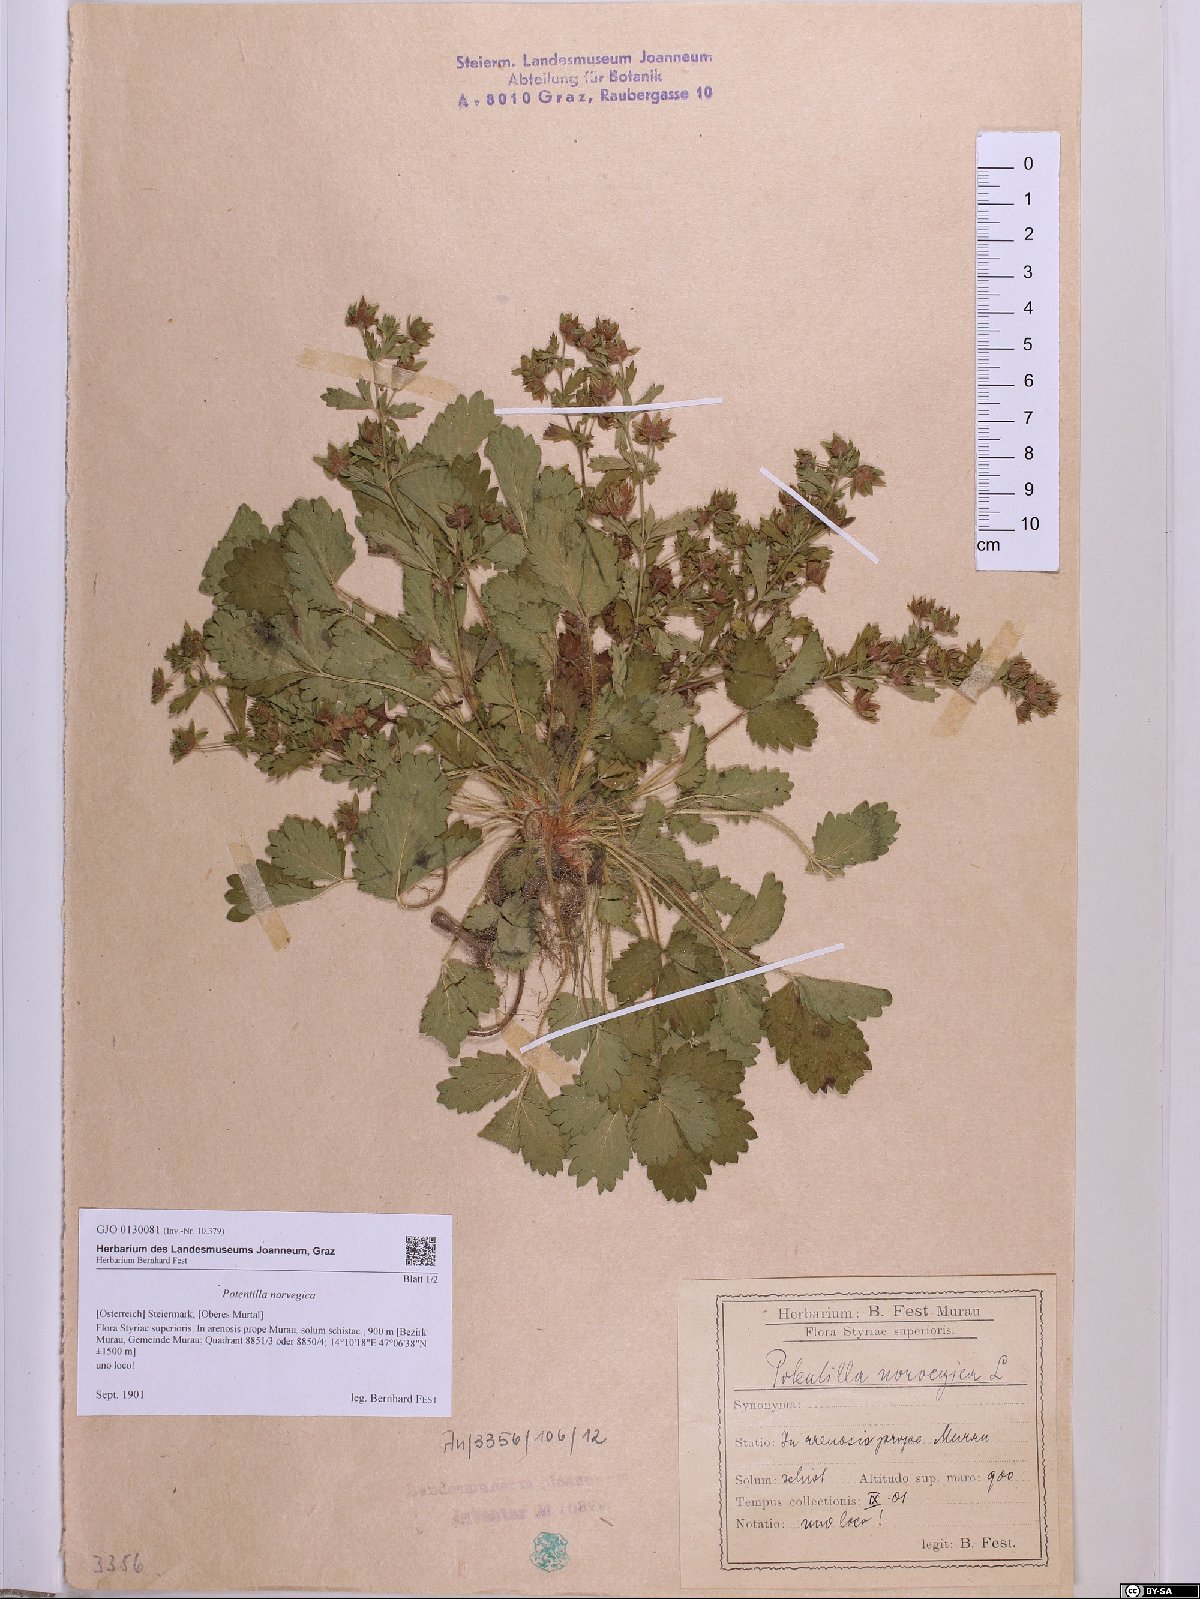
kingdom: Plantae
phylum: Tracheophyta
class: Magnoliopsida
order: Rosales
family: Rosaceae
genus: Potentilla
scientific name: Potentilla norvegica
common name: Ternate-leaved cinquefoil
